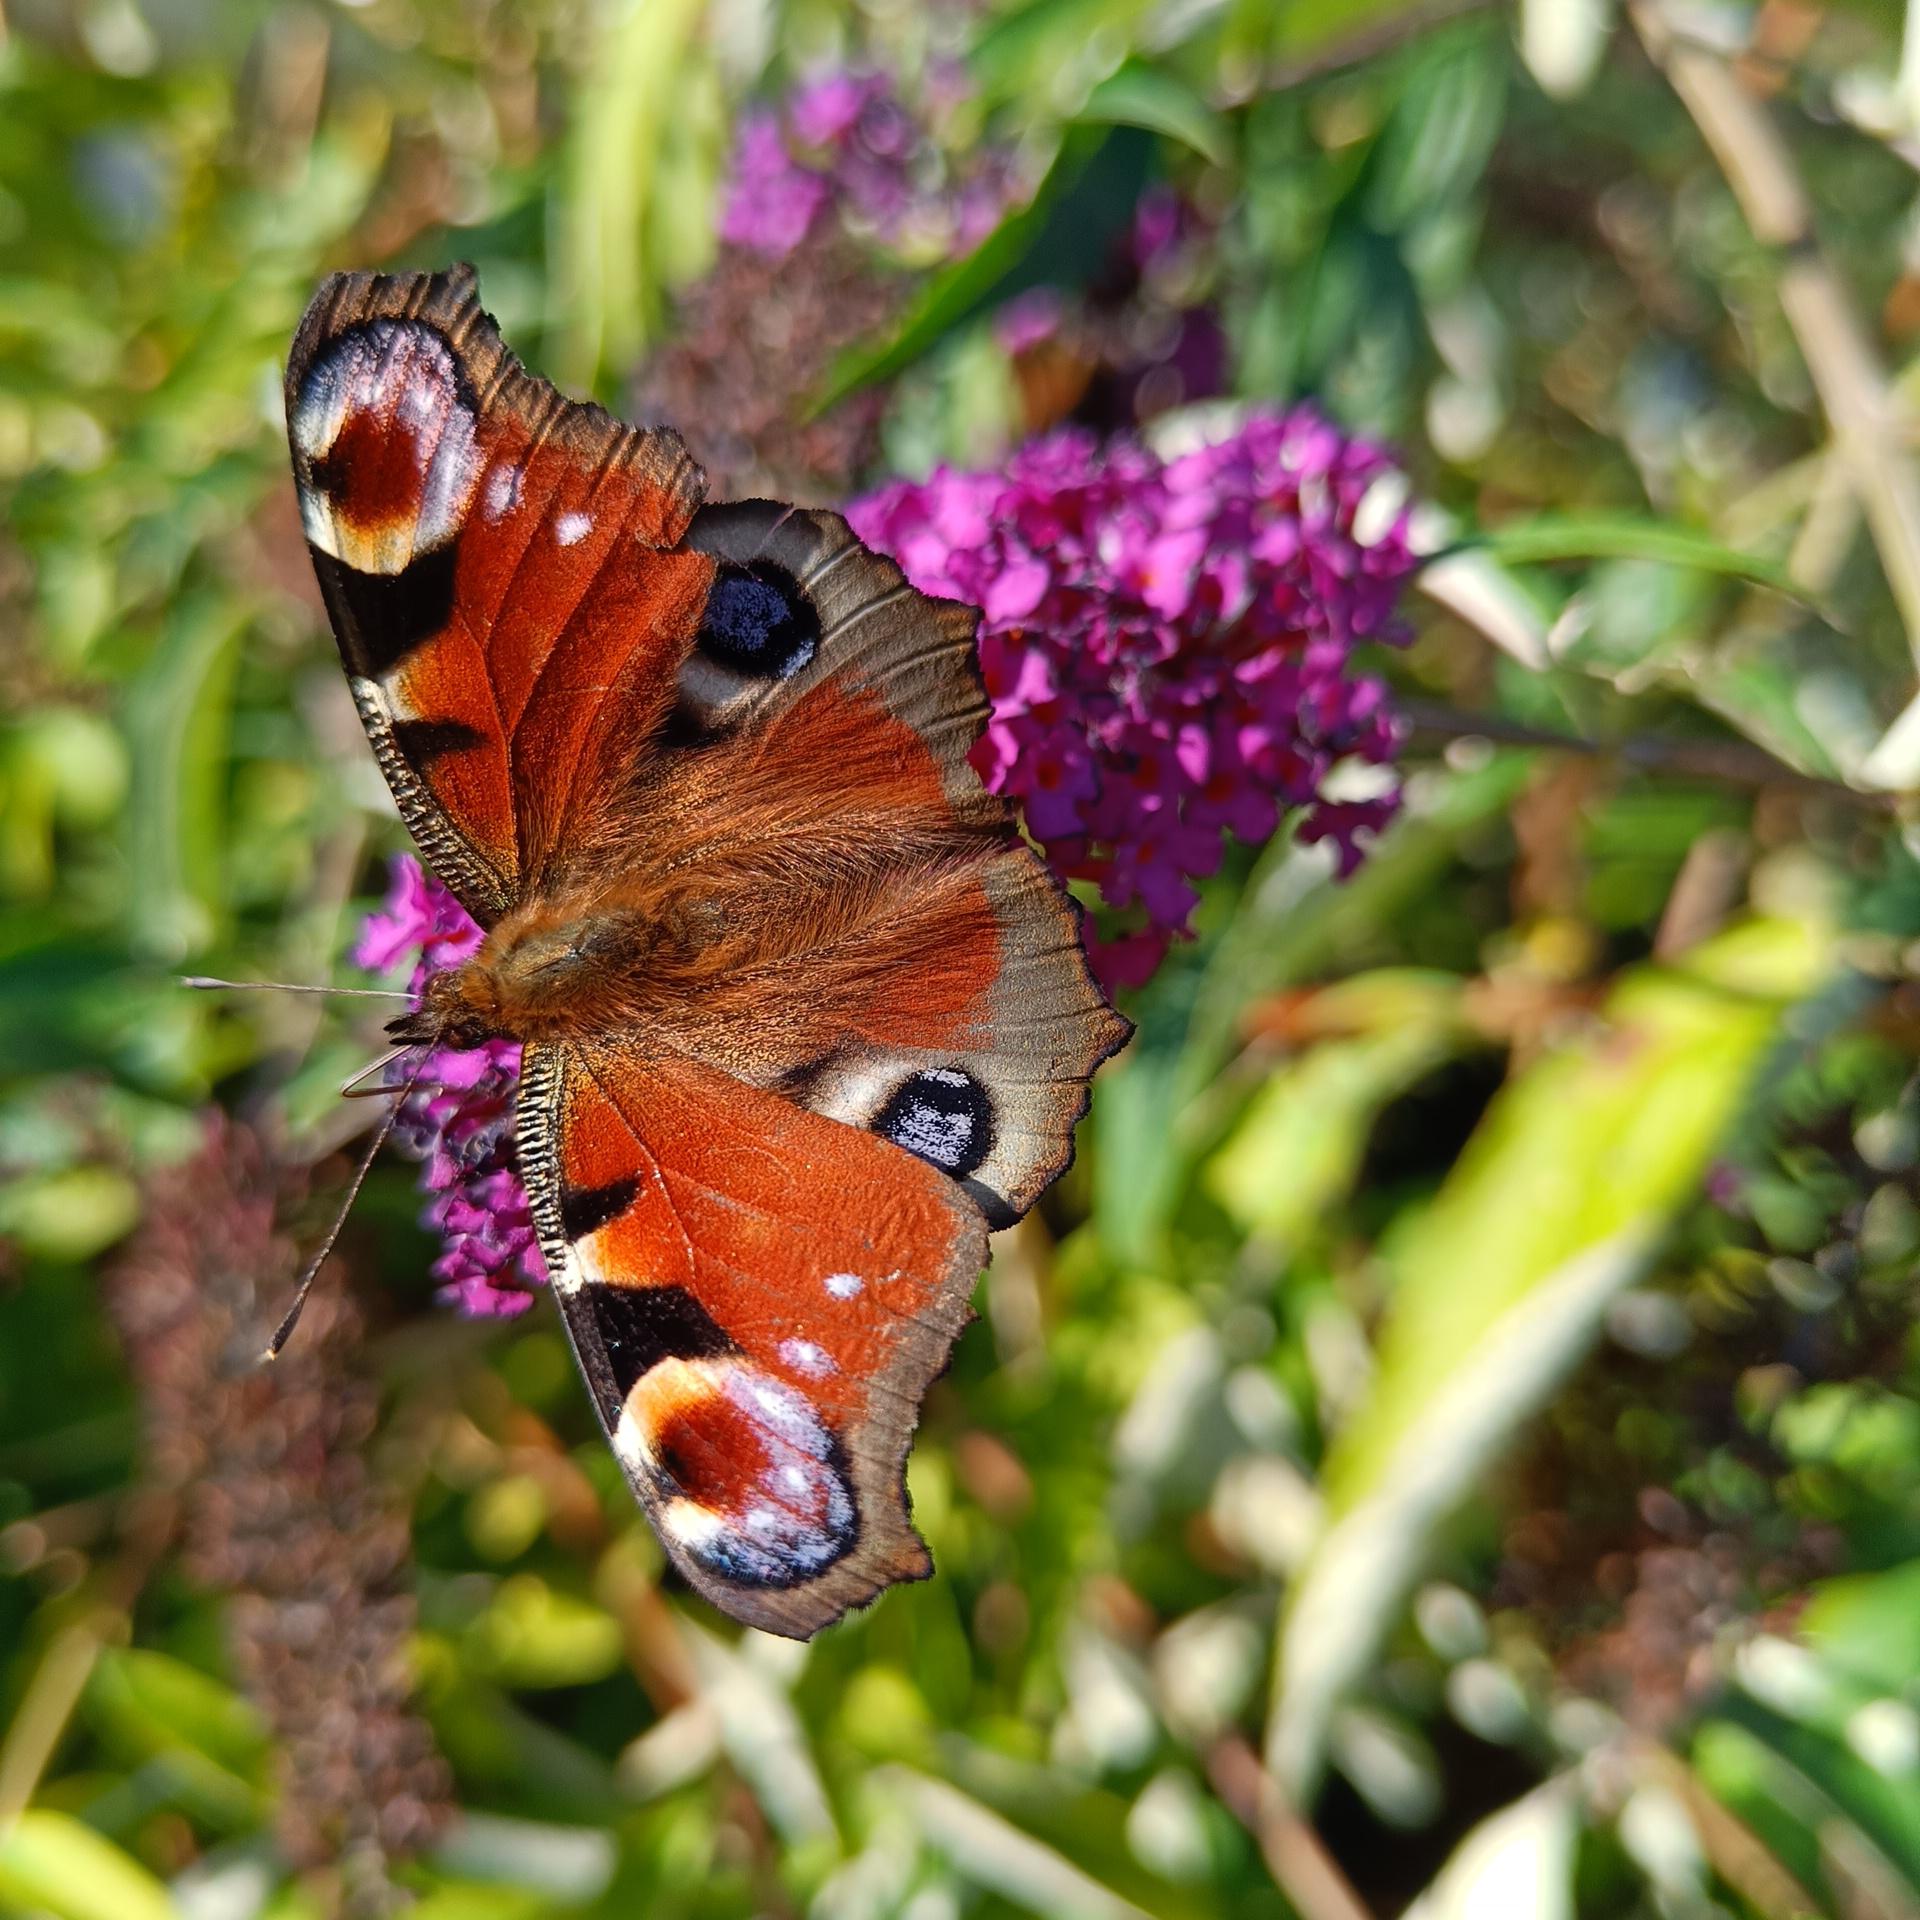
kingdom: Animalia
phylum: Arthropoda
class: Insecta
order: Lepidoptera
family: Nymphalidae
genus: Aglais
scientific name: Aglais io
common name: Dagpåfugleøje
